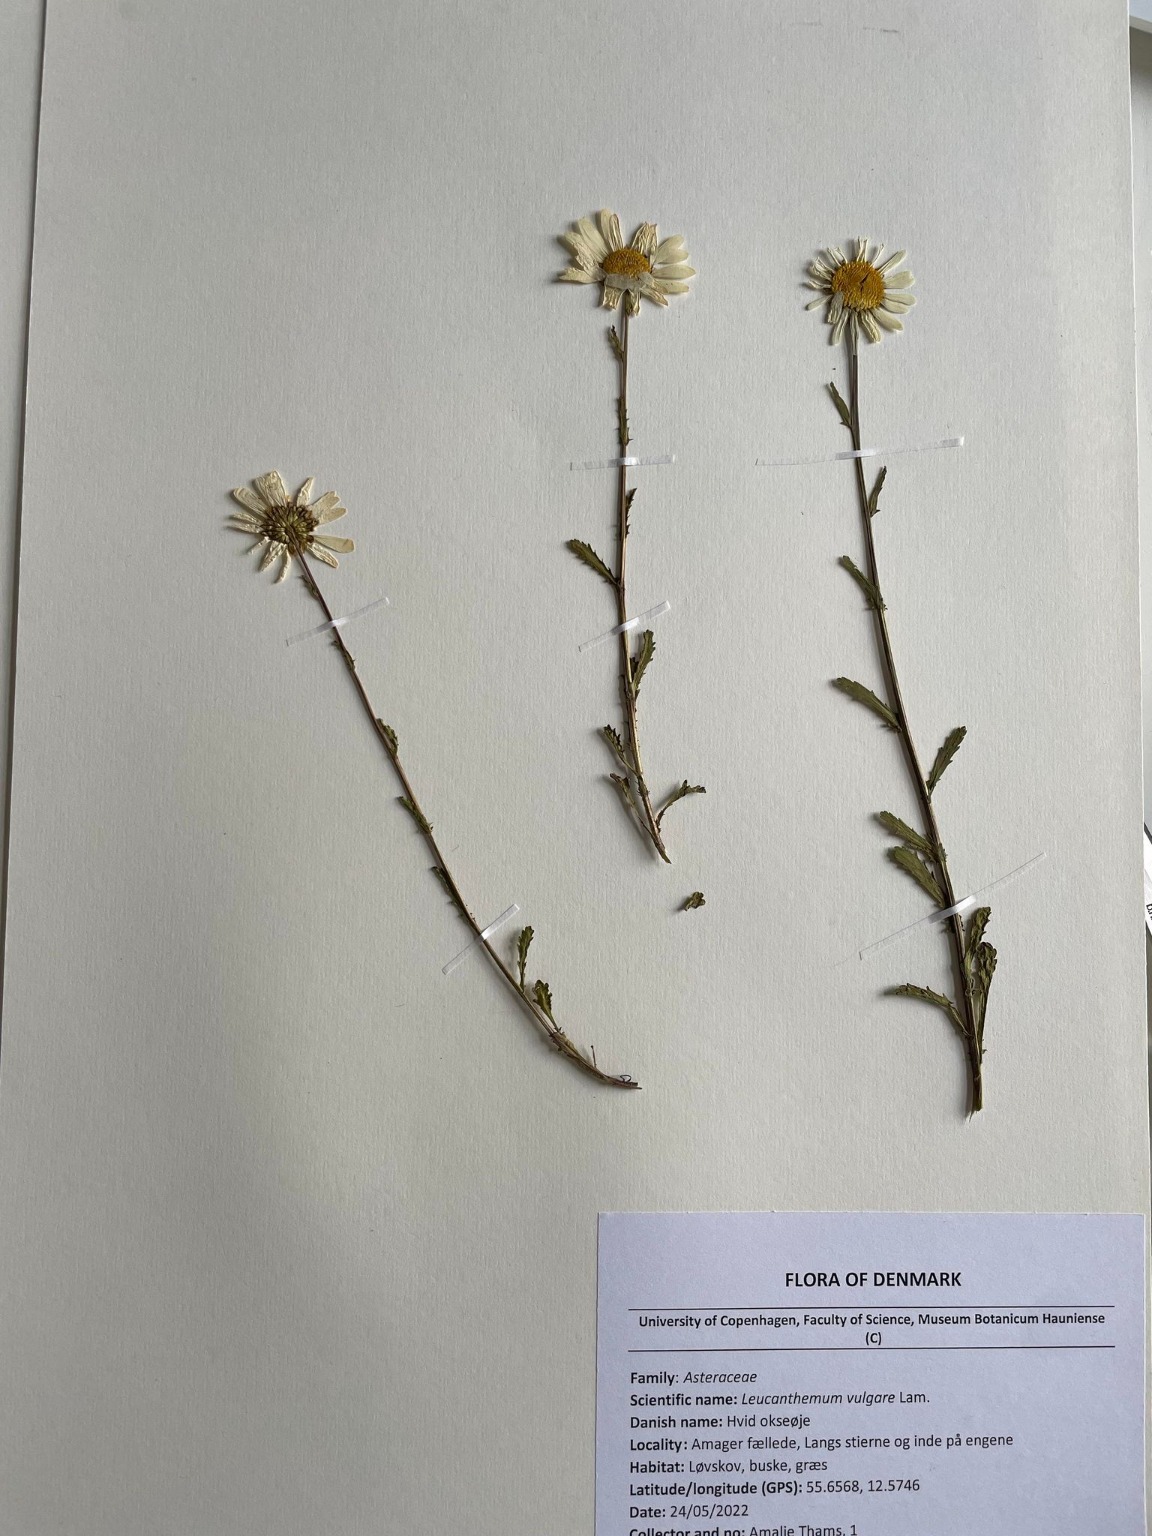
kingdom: Plantae
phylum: Tracheophyta
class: Magnoliopsida
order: Asterales
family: Asteraceae
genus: Leucanthemum
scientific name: Leucanthemum vulgare
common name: Hvid okseøje
